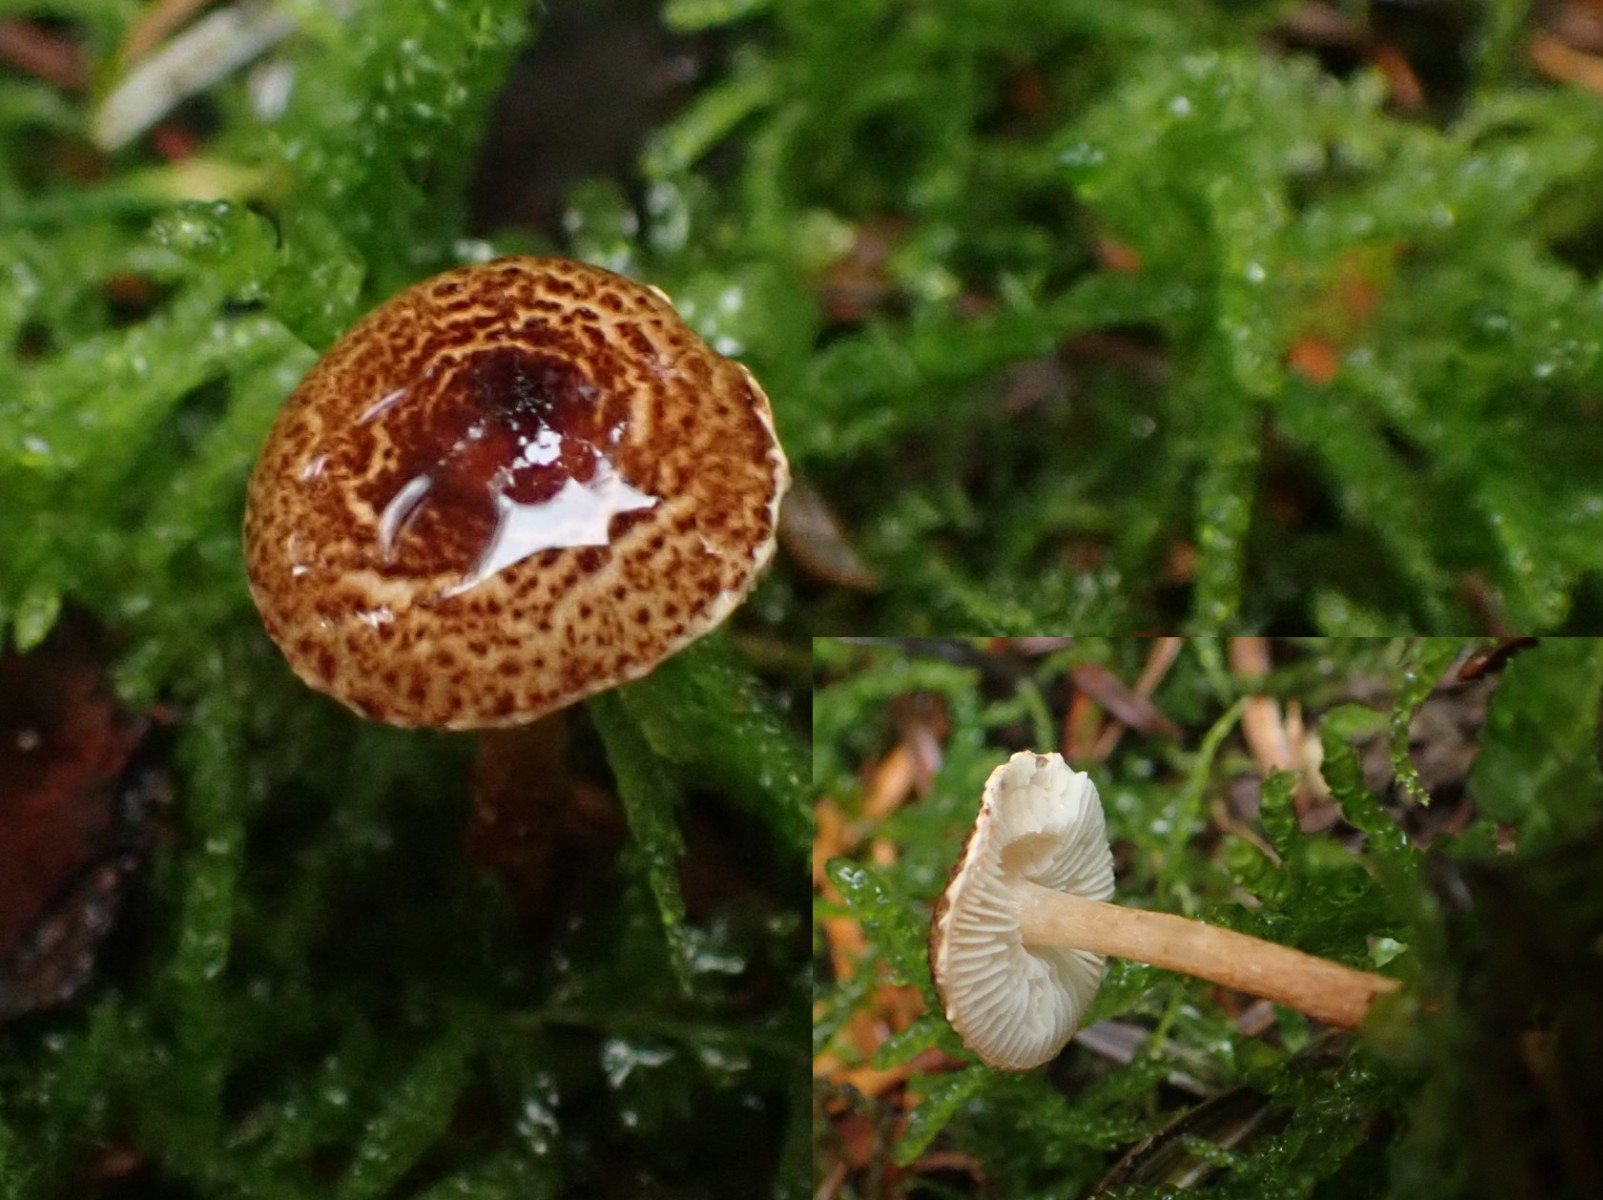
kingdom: Fungi
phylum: Basidiomycota
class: Agaricomycetes
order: Agaricales
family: Agaricaceae
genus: Lepiota
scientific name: Lepiota castanea
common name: kastaniebrun parasolhat
